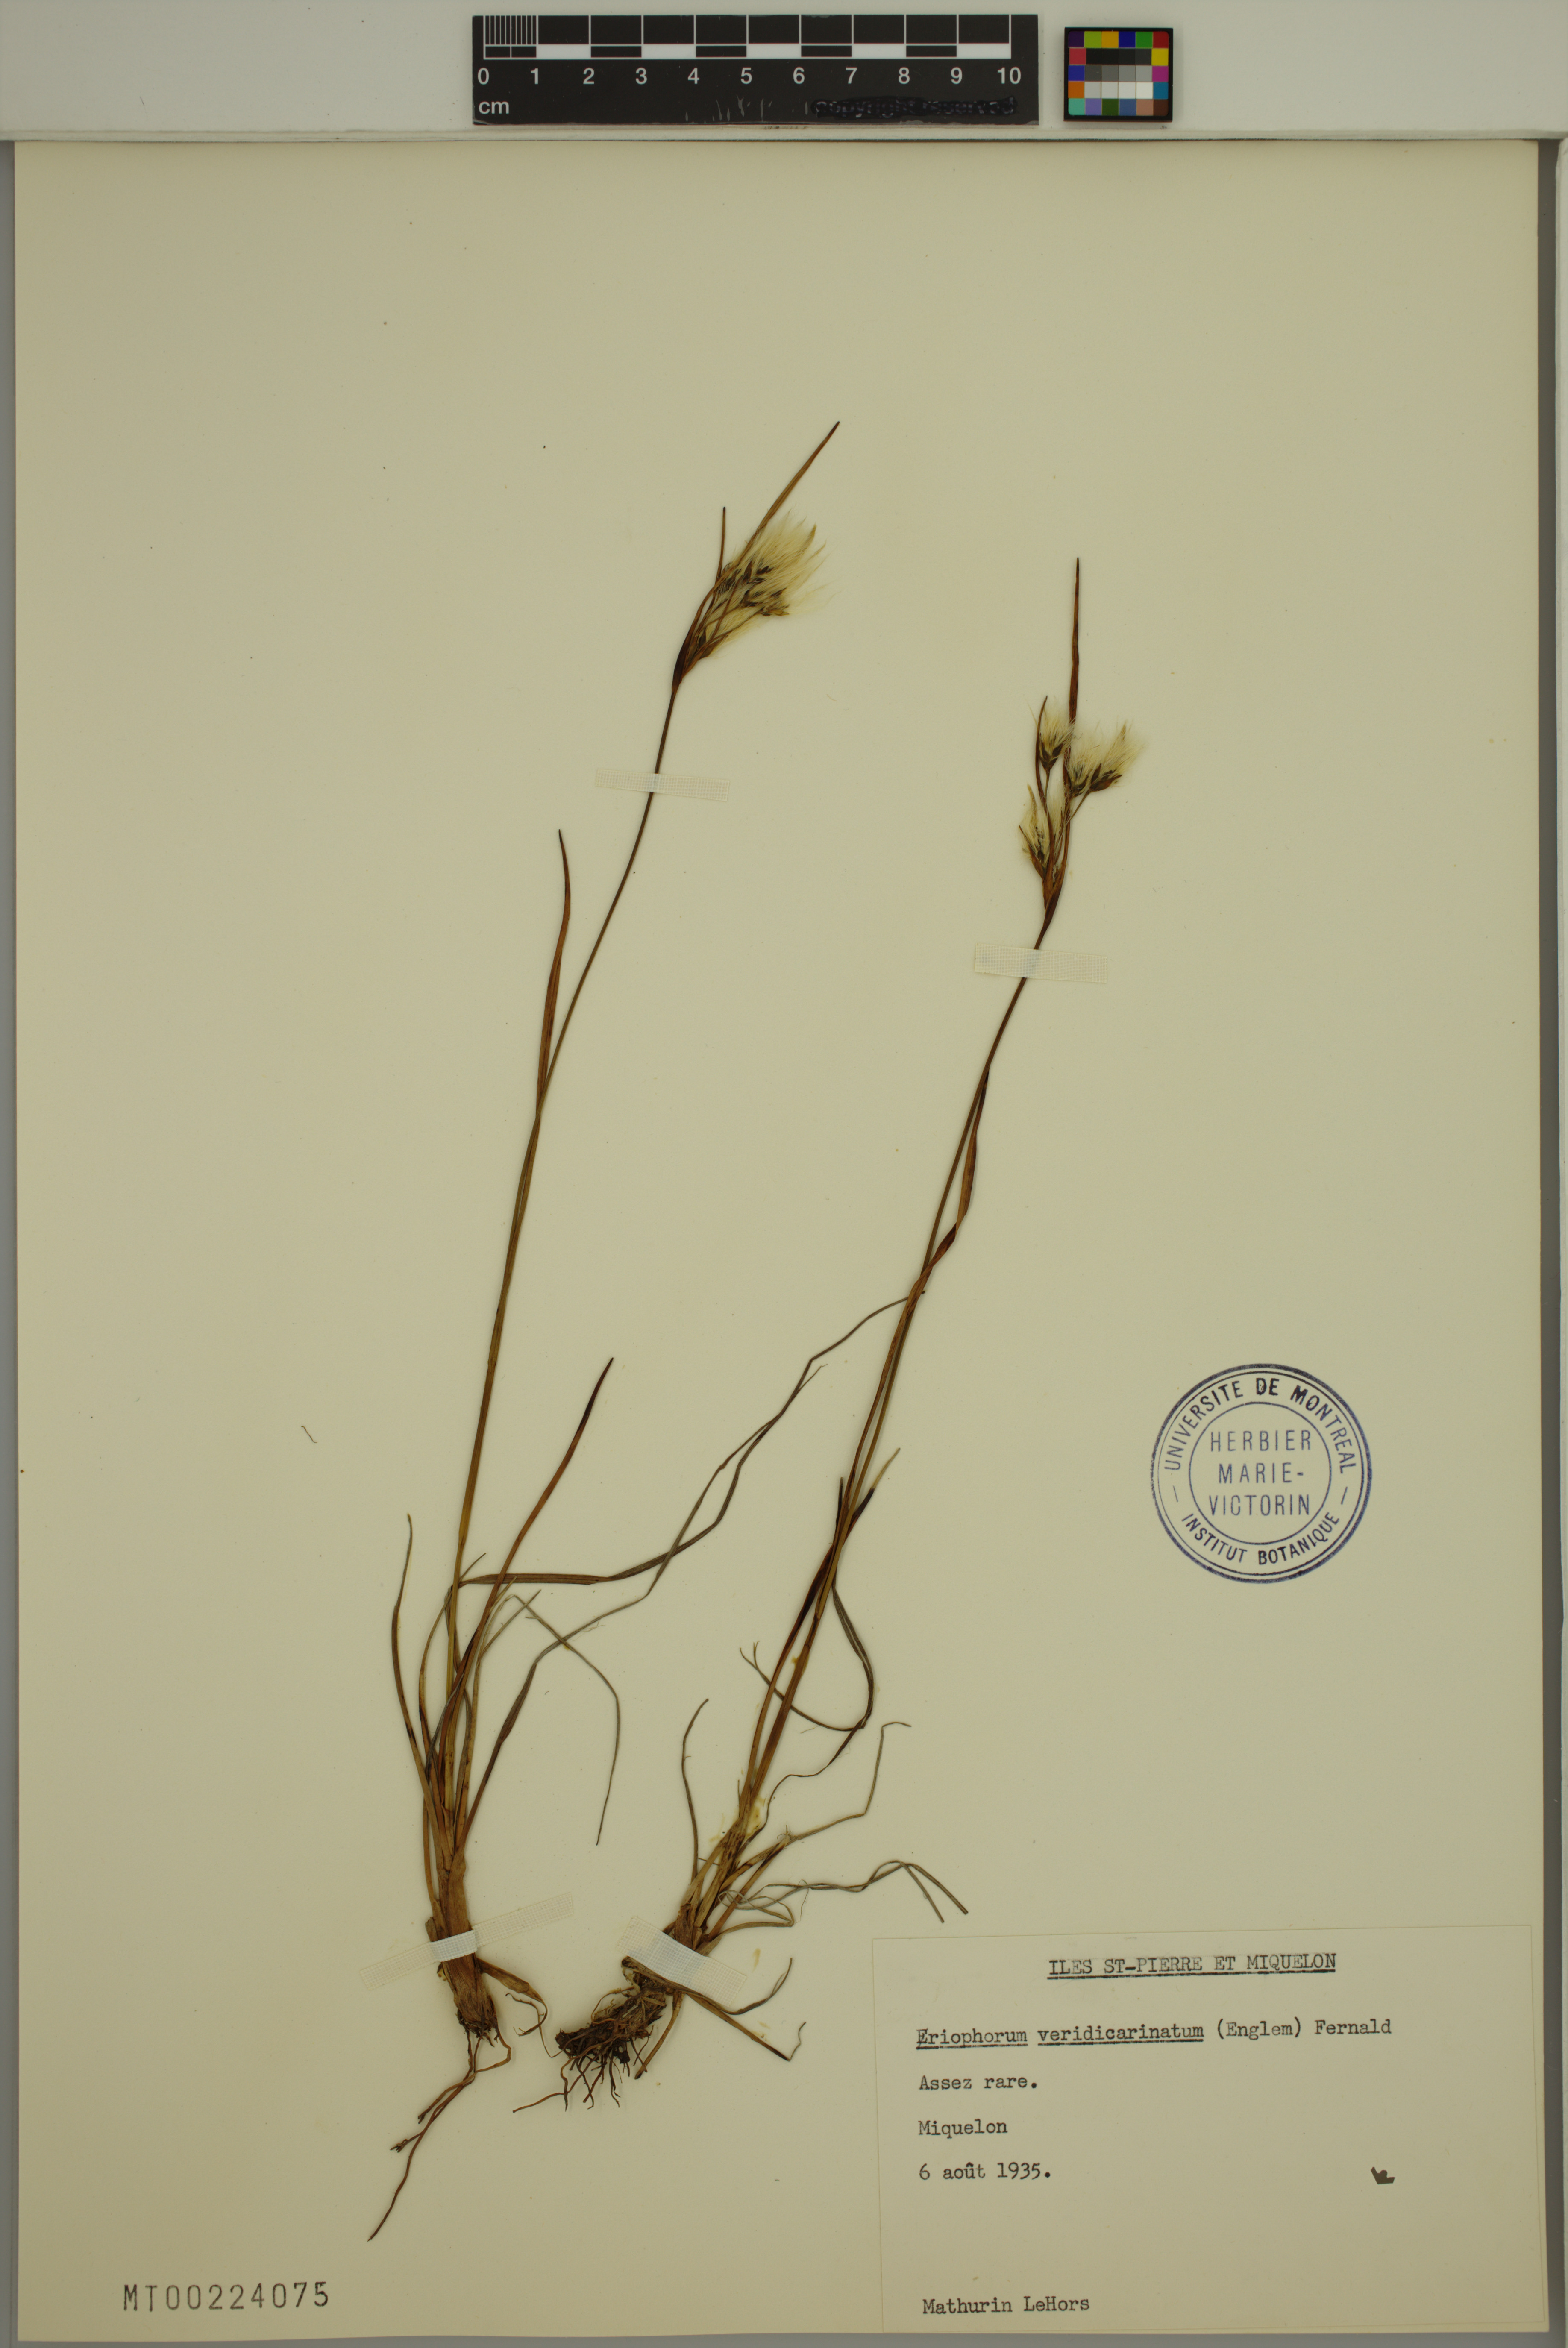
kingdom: Plantae
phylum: Tracheophyta
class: Liliopsida
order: Poales
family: Cyperaceae
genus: Eriophorum
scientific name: Eriophorum viridicarinatum
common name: Green-keeled cottongrass
